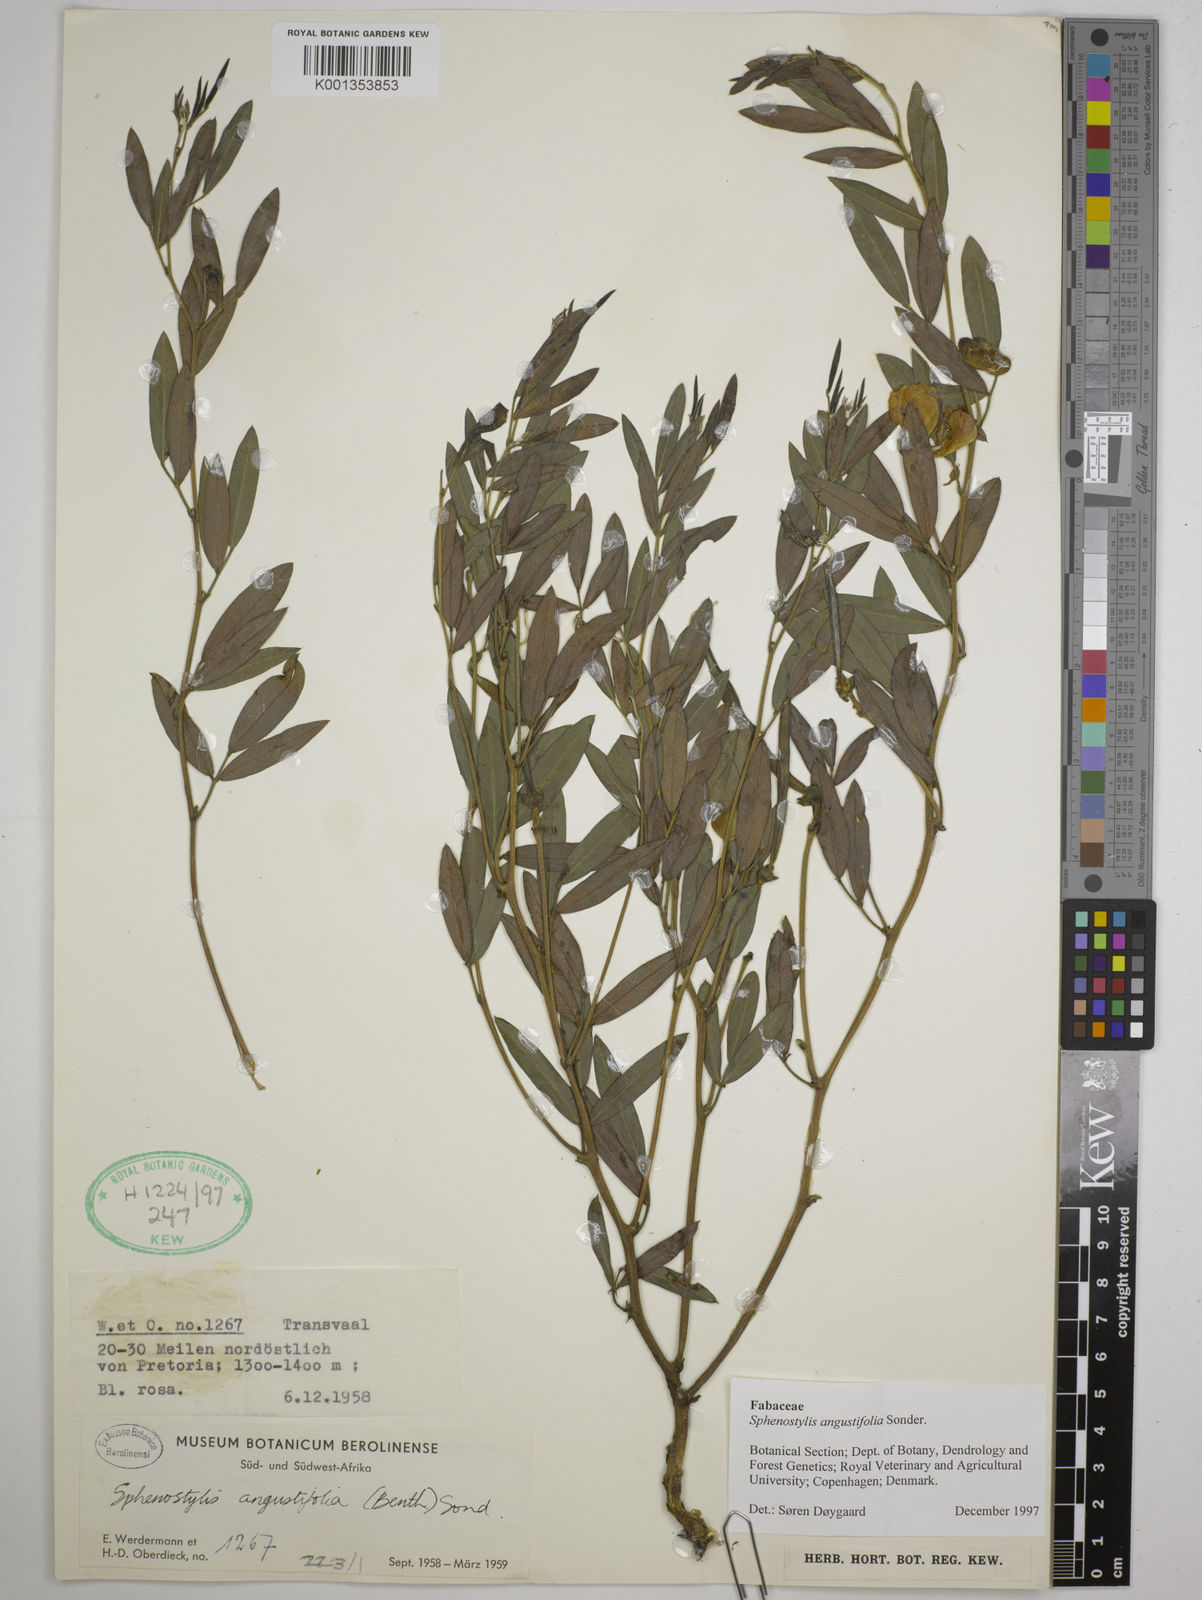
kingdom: Plantae
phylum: Tracheophyta
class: Magnoliopsida
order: Fabales
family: Fabaceae
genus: Sphenostylis
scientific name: Sphenostylis angustifolia
